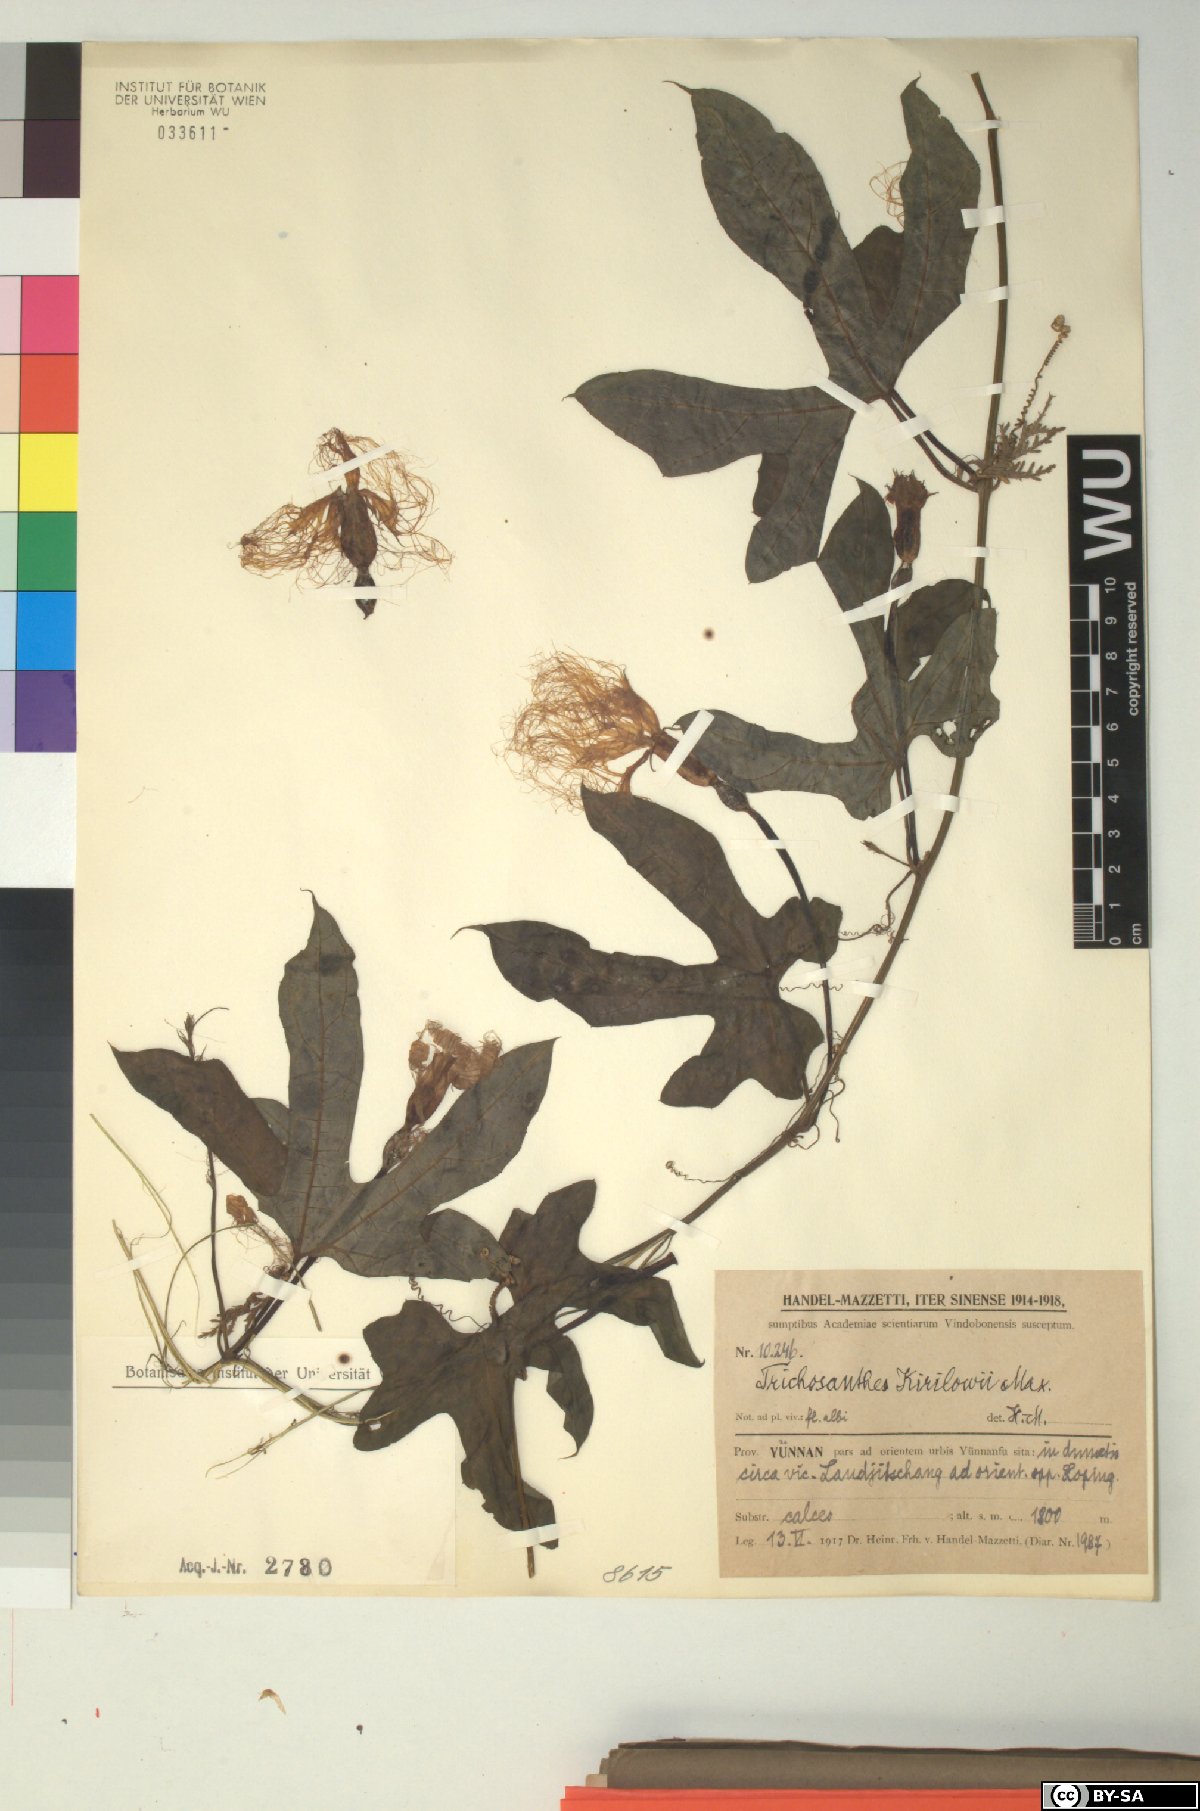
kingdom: Plantae
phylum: Tracheophyta
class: Magnoliopsida
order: Cucurbitales
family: Cucurbitaceae
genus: Trichosanthes
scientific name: Trichosanthes kirilowii
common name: Chinese-cucumber
